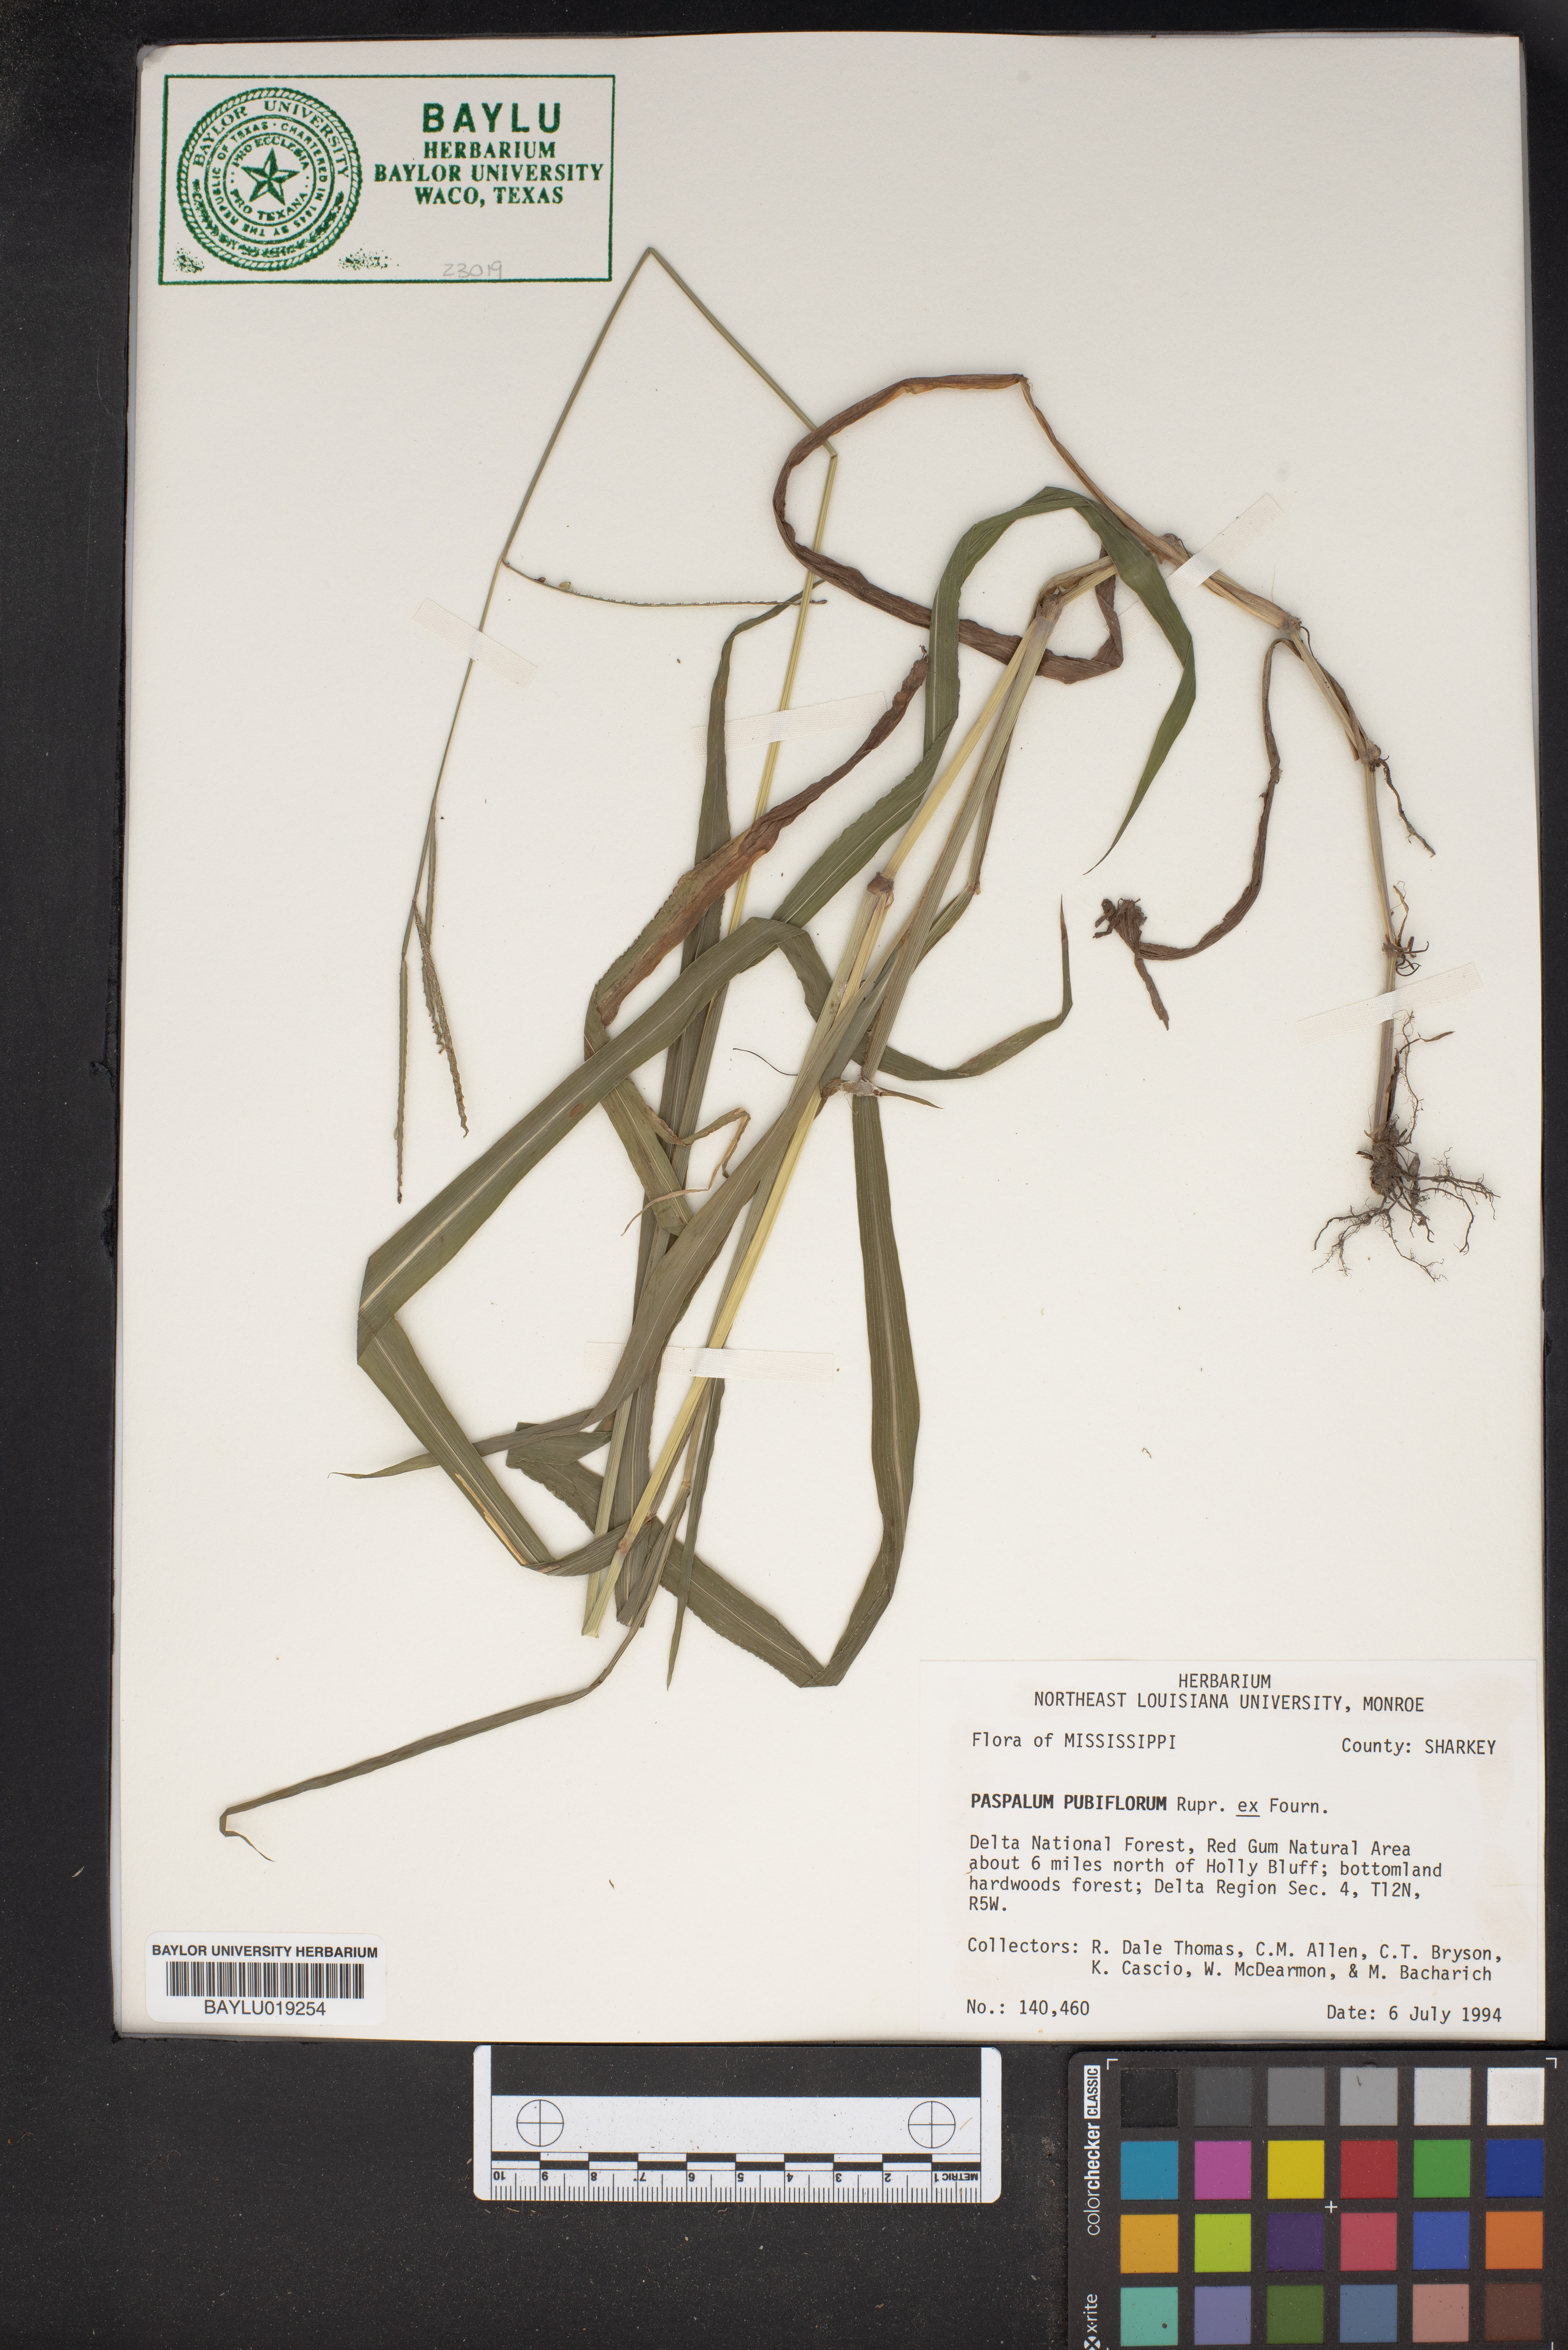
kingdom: Plantae
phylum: Tracheophyta
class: Liliopsida
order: Poales
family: Poaceae
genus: Paspalum
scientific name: Paspalum pubiflorum
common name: Hairy-seed paspalum
